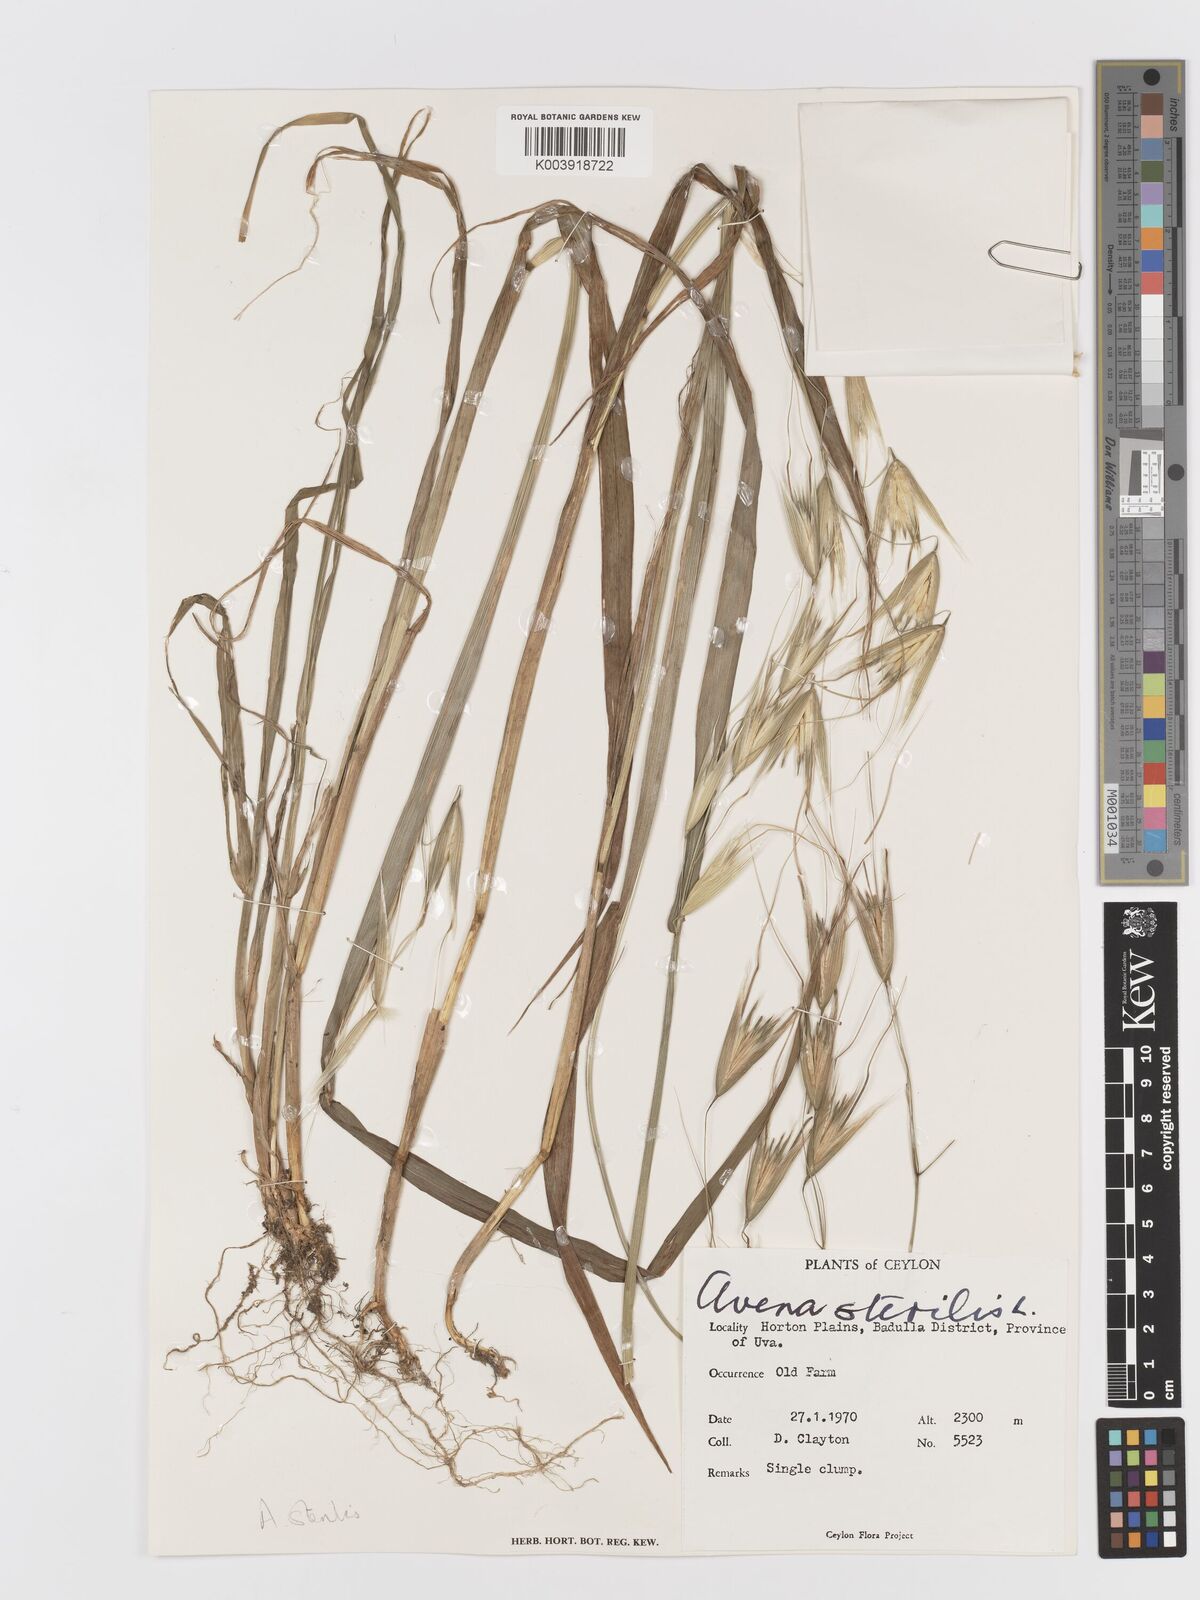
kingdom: Plantae
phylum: Tracheophyta
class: Liliopsida
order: Poales
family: Poaceae
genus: Avena
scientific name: Avena sterilis
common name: Animated oat
